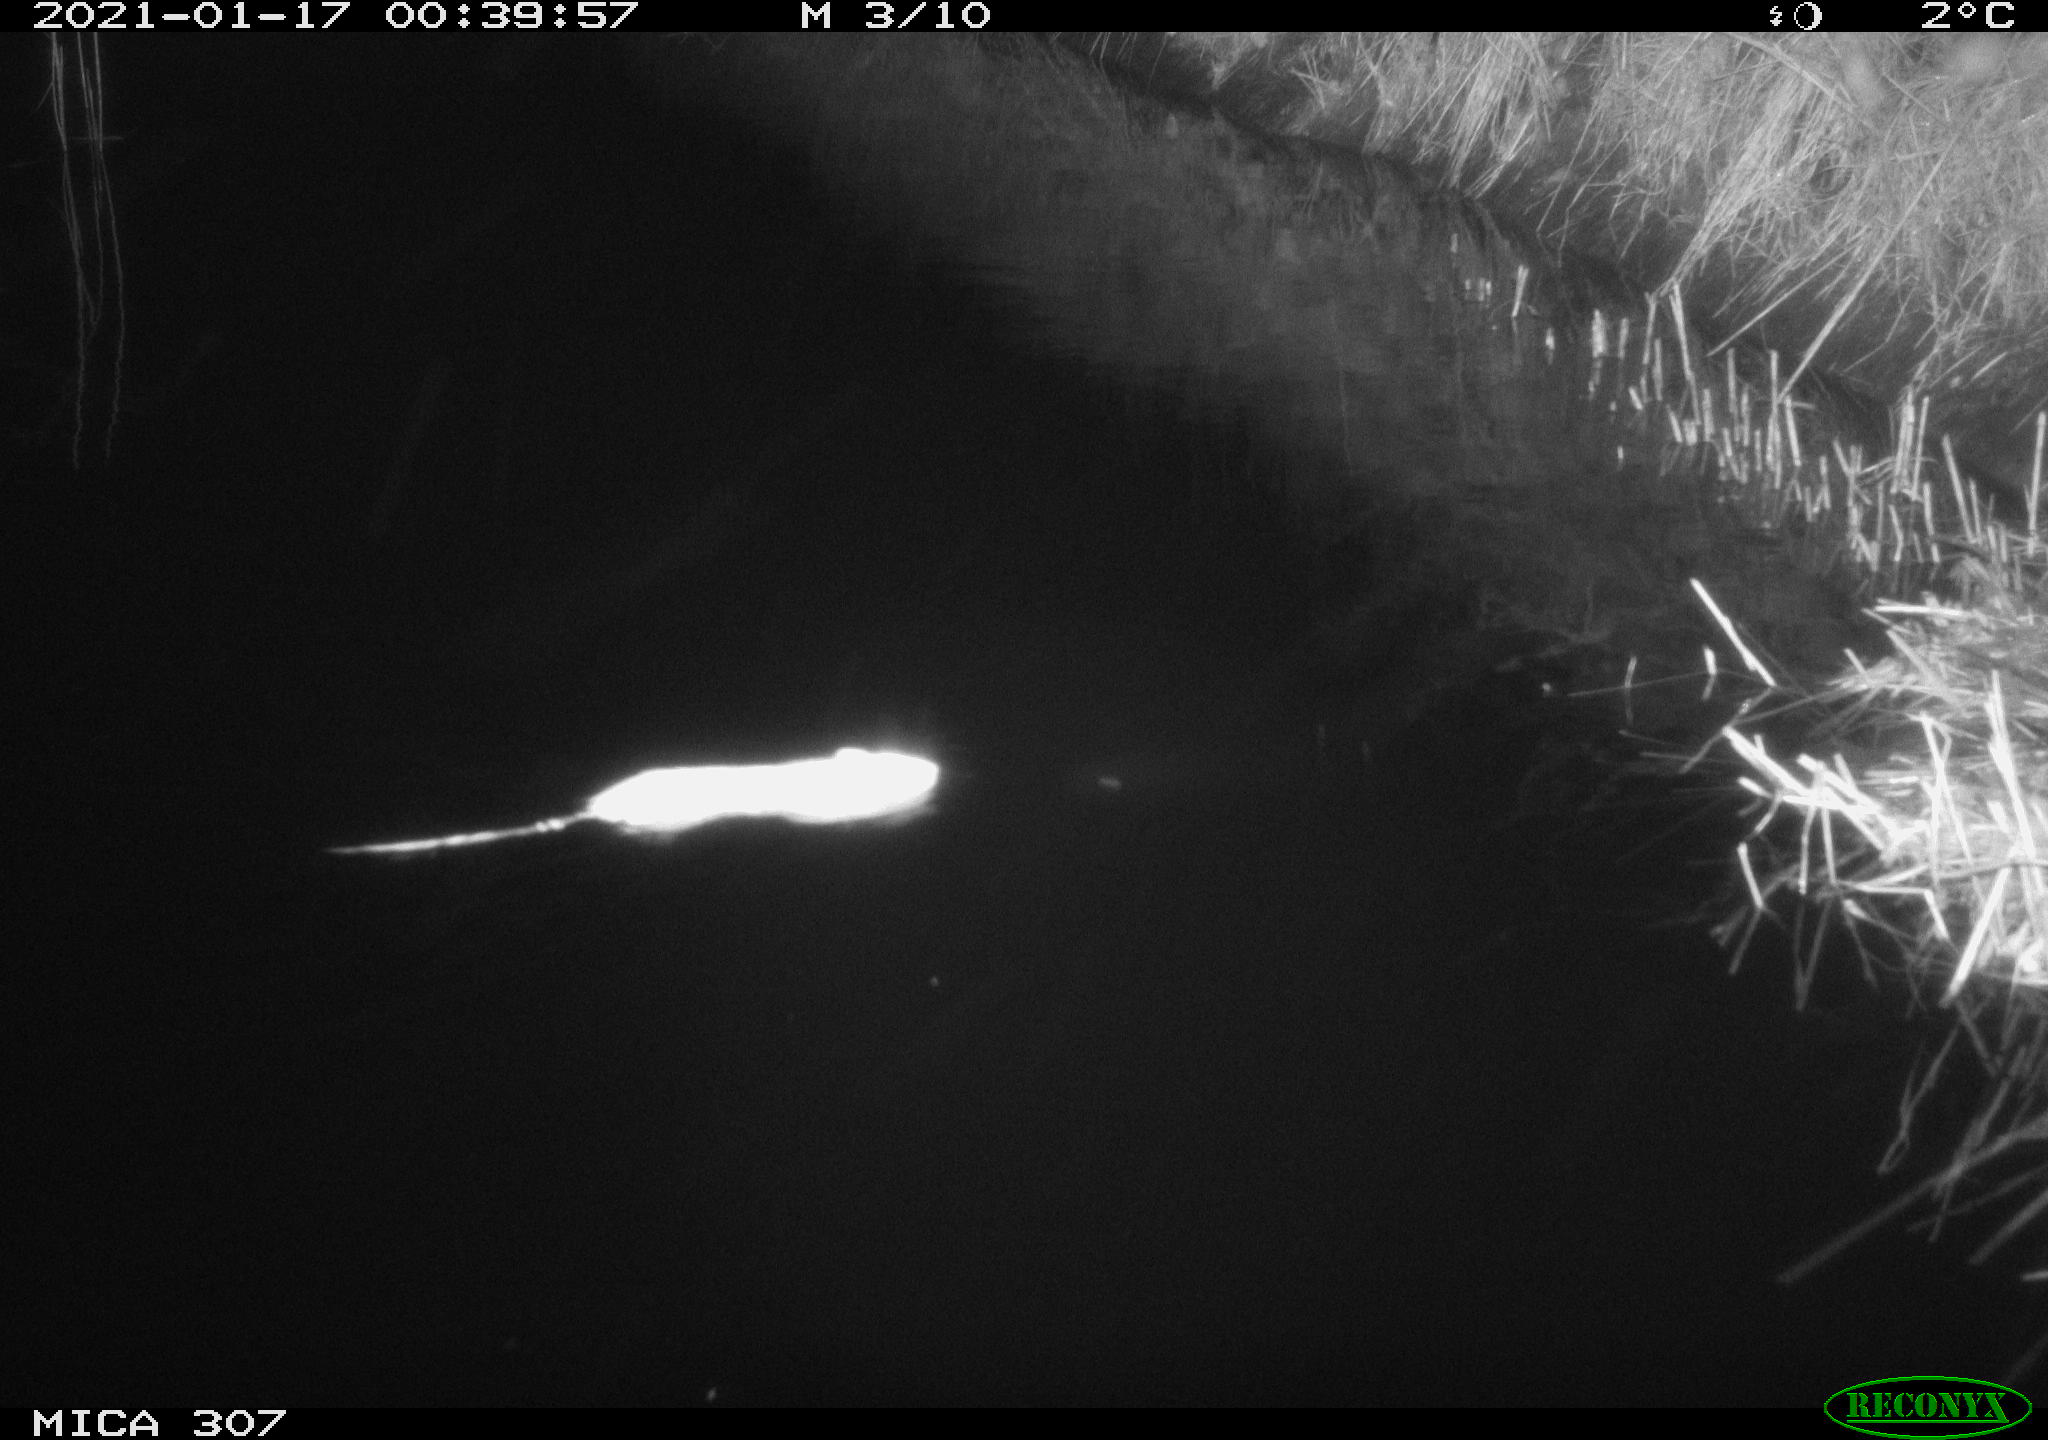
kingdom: Animalia
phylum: Chordata
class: Mammalia
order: Rodentia
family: Muridae
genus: Rattus
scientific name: Rattus norvegicus
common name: Brown rat
